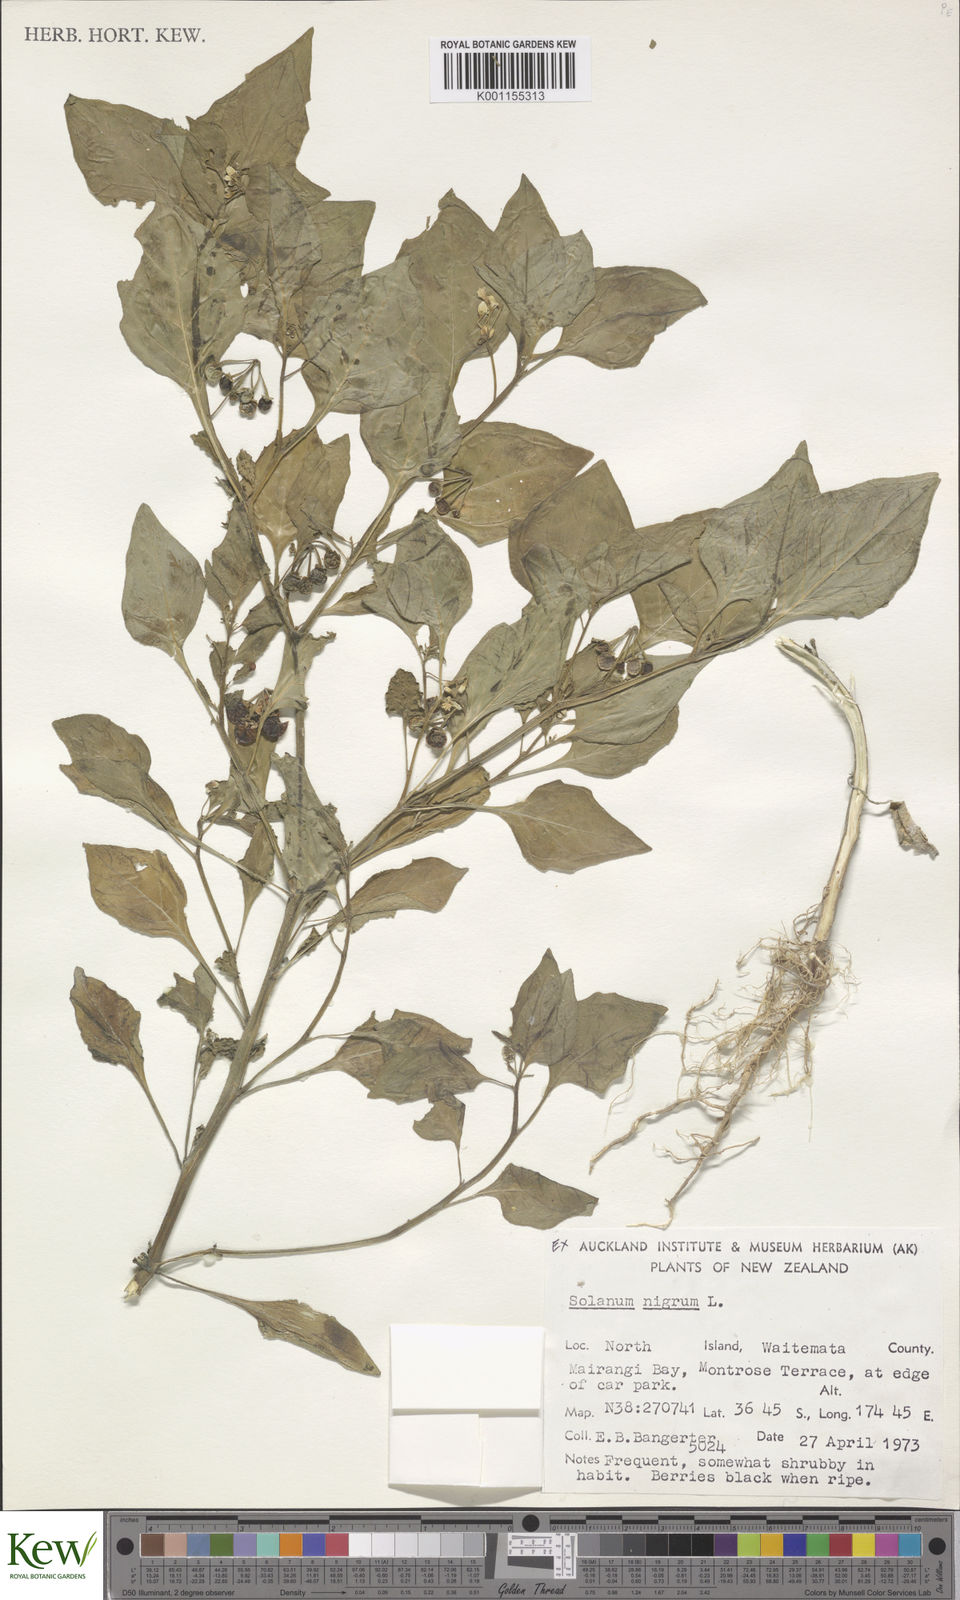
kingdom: Plantae
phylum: Tracheophyta
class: Magnoliopsida
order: Solanales
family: Solanaceae
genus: Solanum
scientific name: Solanum nigrum
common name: Black nightshade
